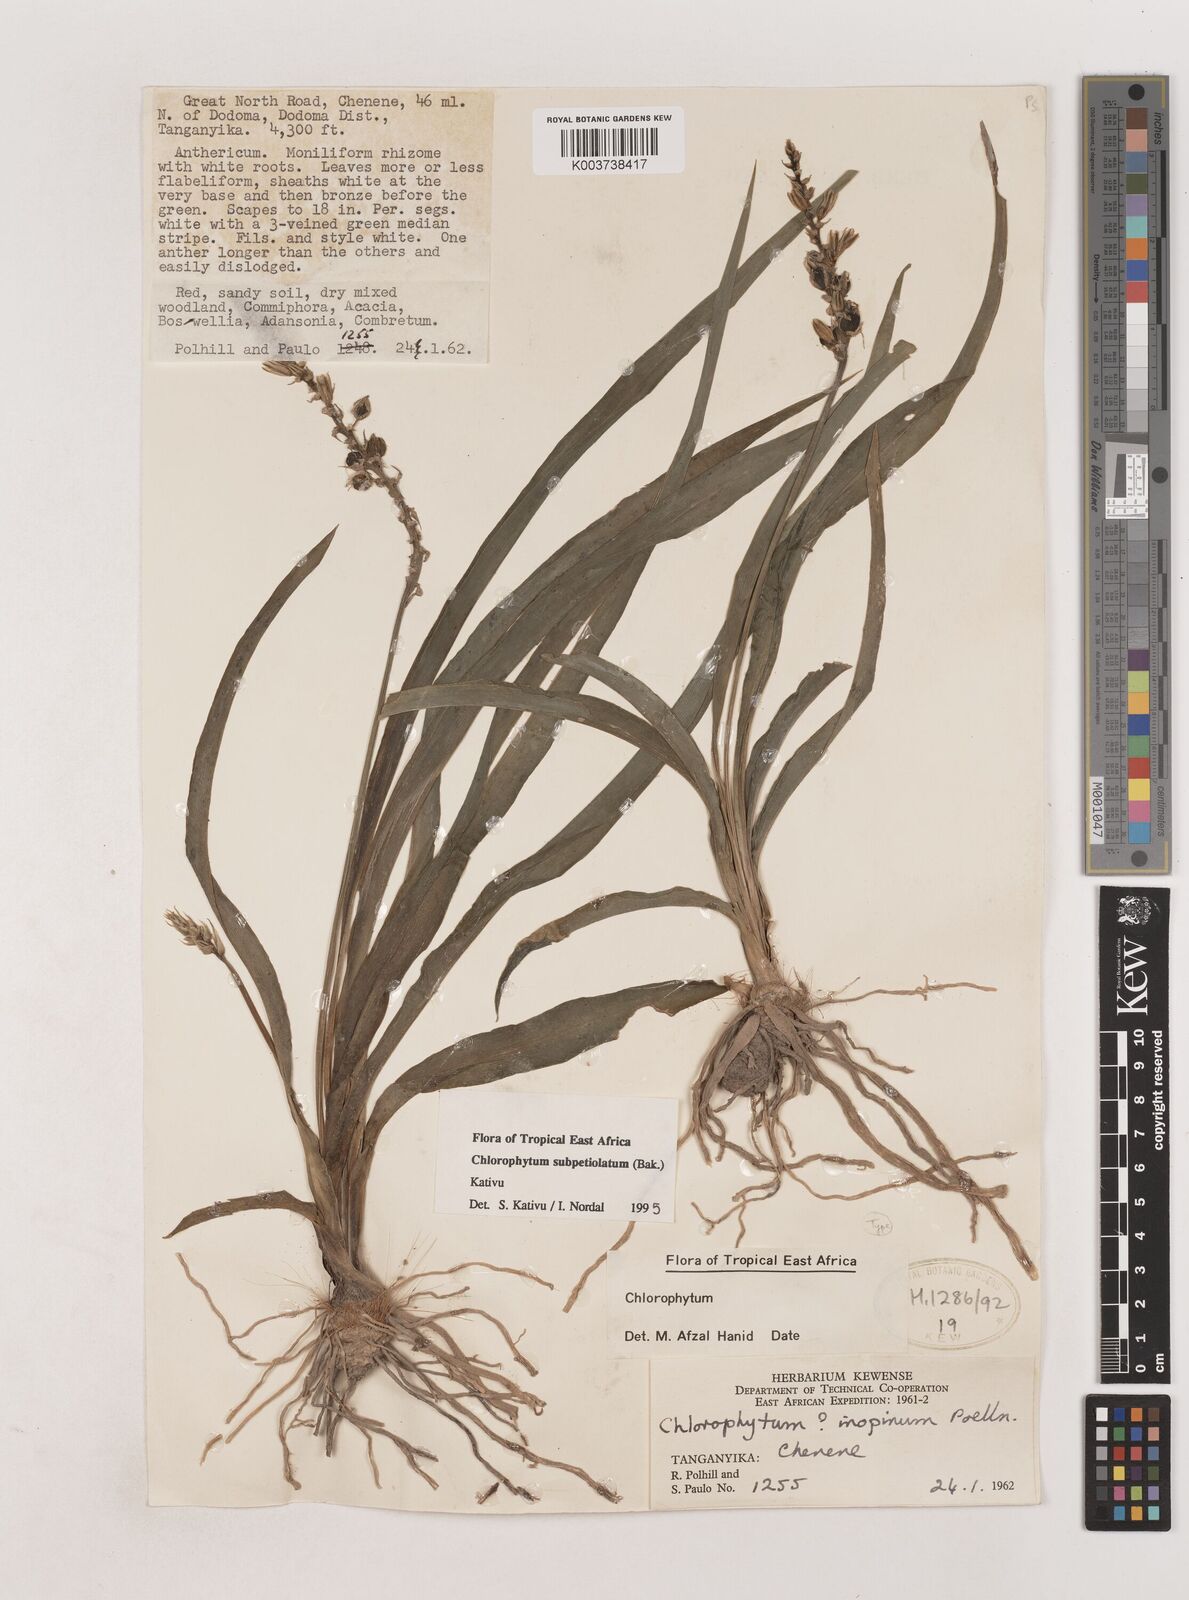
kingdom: Plantae
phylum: Tracheophyta
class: Liliopsida
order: Asparagales
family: Asparagaceae
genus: Chlorophytum
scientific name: Chlorophytum subpetiolatum
